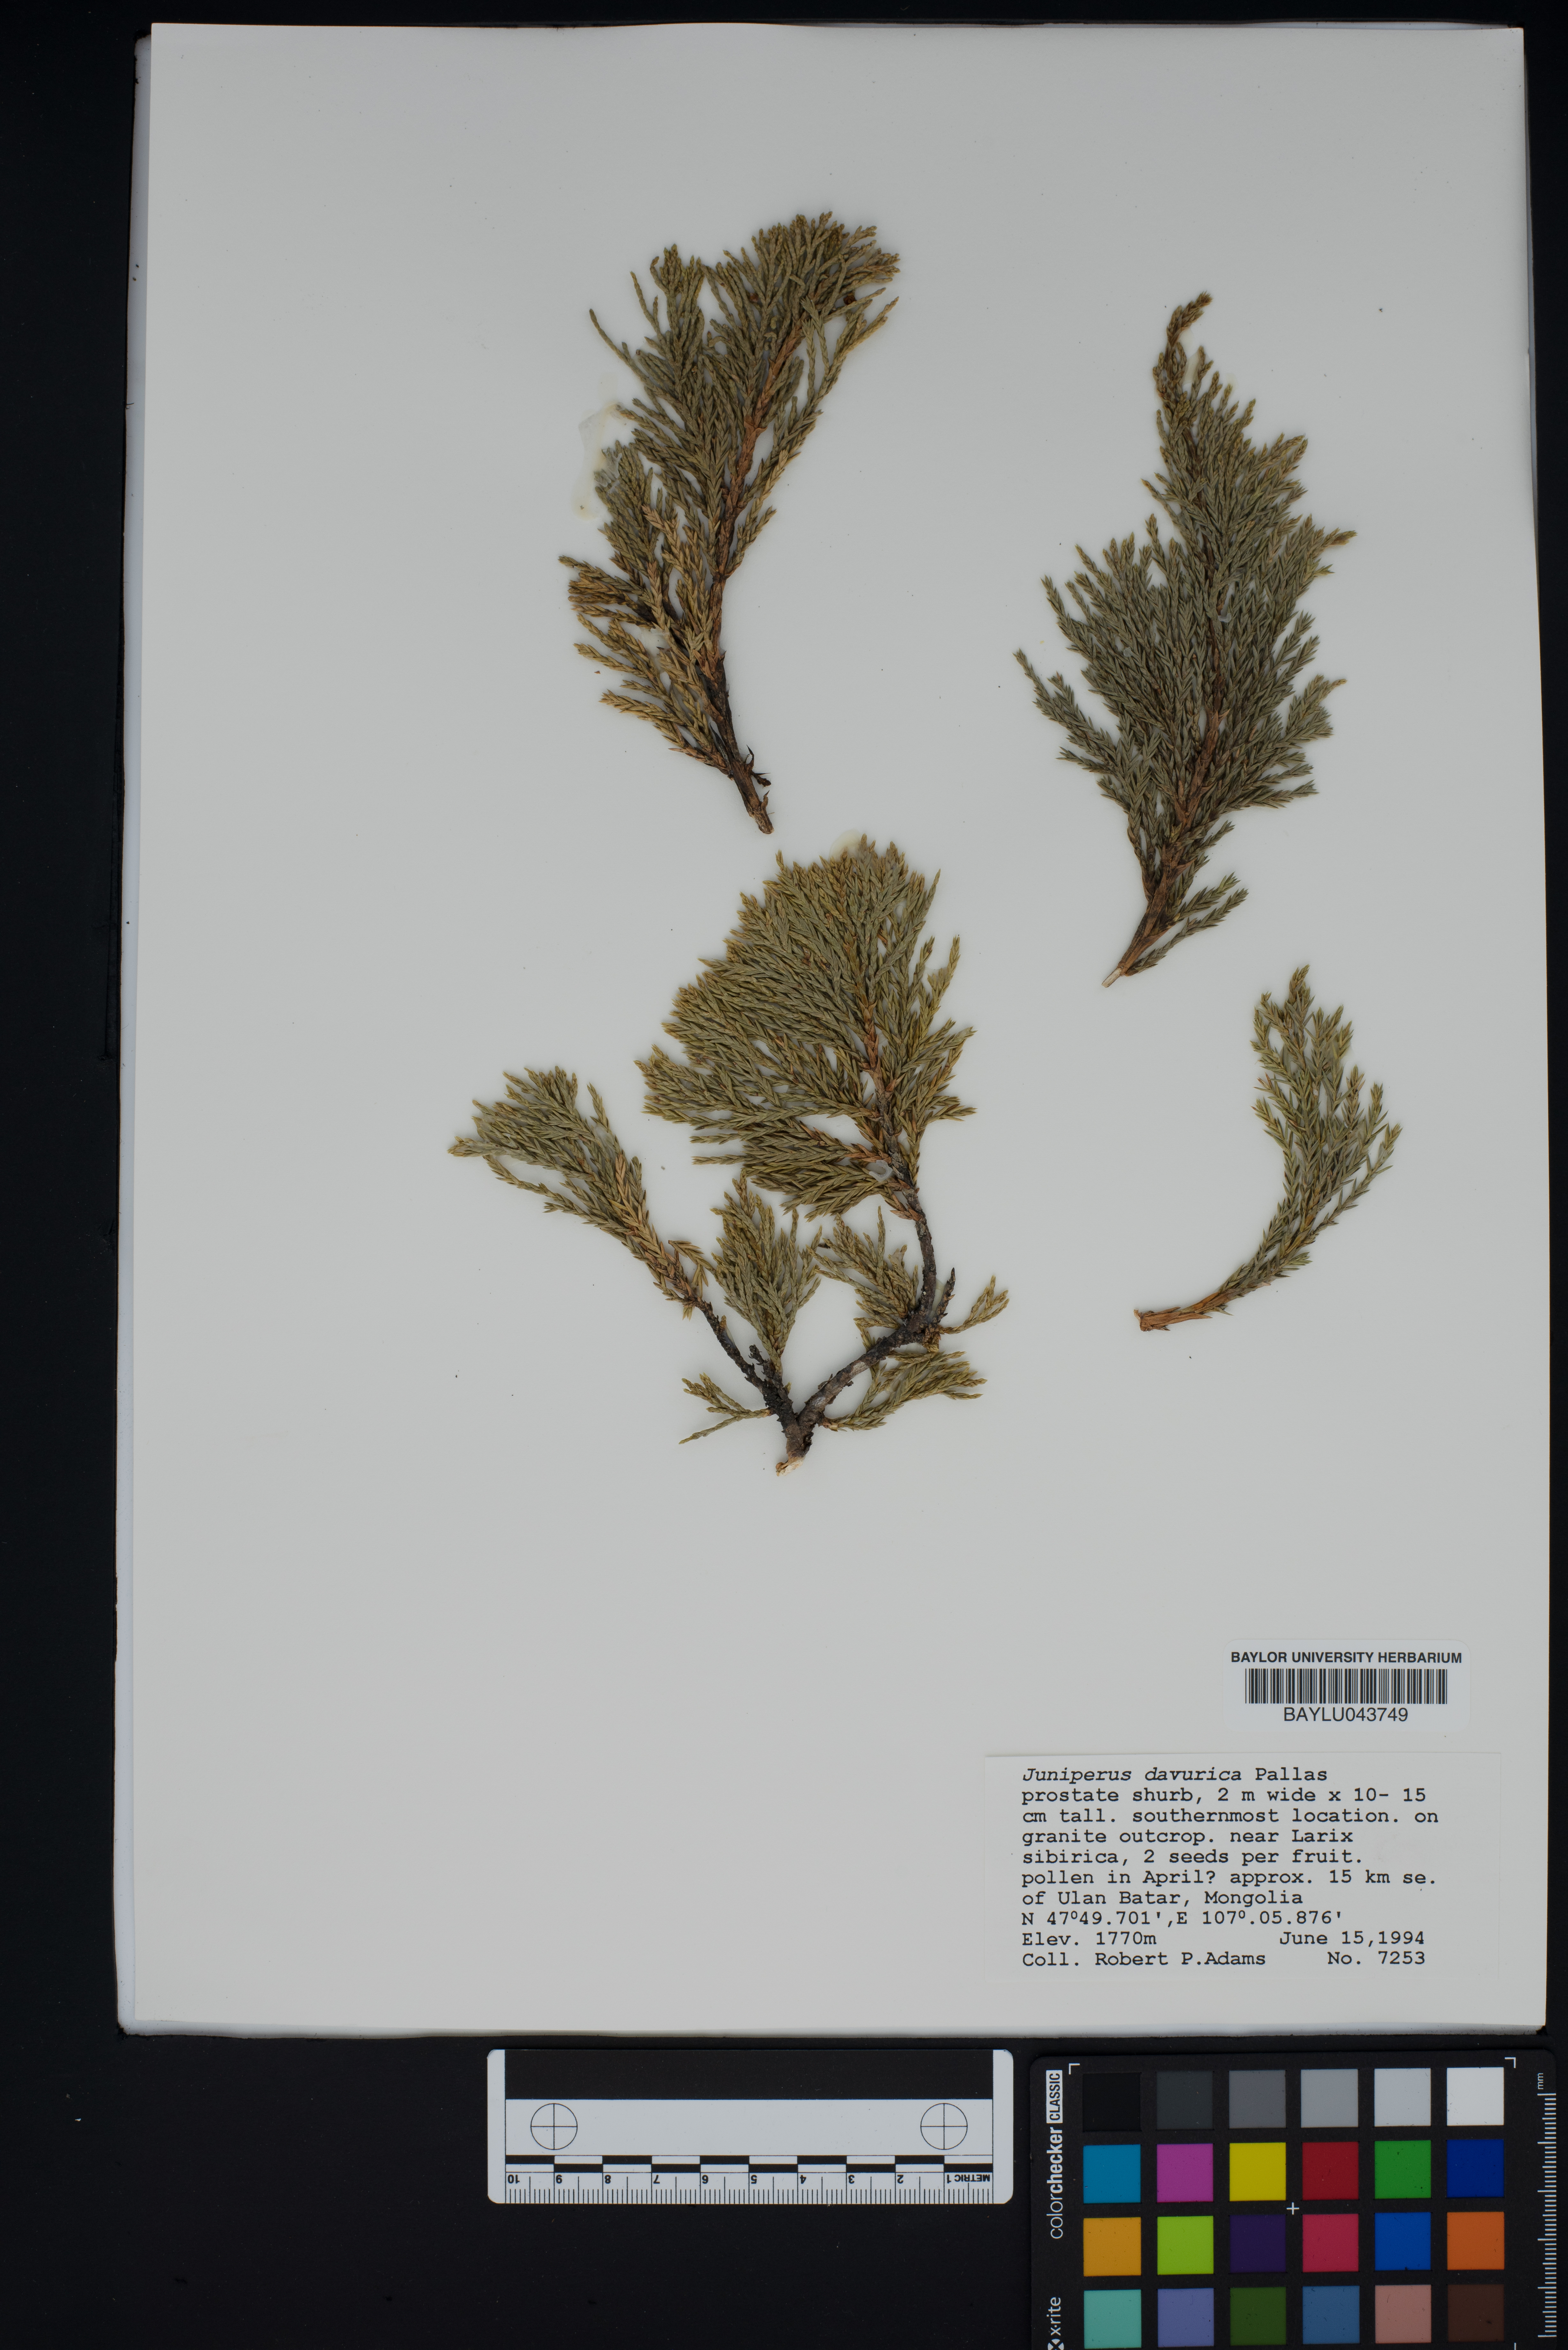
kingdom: Plantae
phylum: Tracheophyta
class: Pinopsida
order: Pinales
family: Cupressaceae
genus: Juniperus
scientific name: Juniperus sabina
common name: Savin
